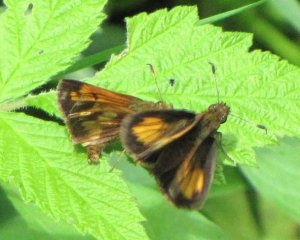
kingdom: Animalia
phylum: Arthropoda
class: Insecta
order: Lepidoptera
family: Hesperiidae
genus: Lon
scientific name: Lon hobomok
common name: Hobomok Skipper
